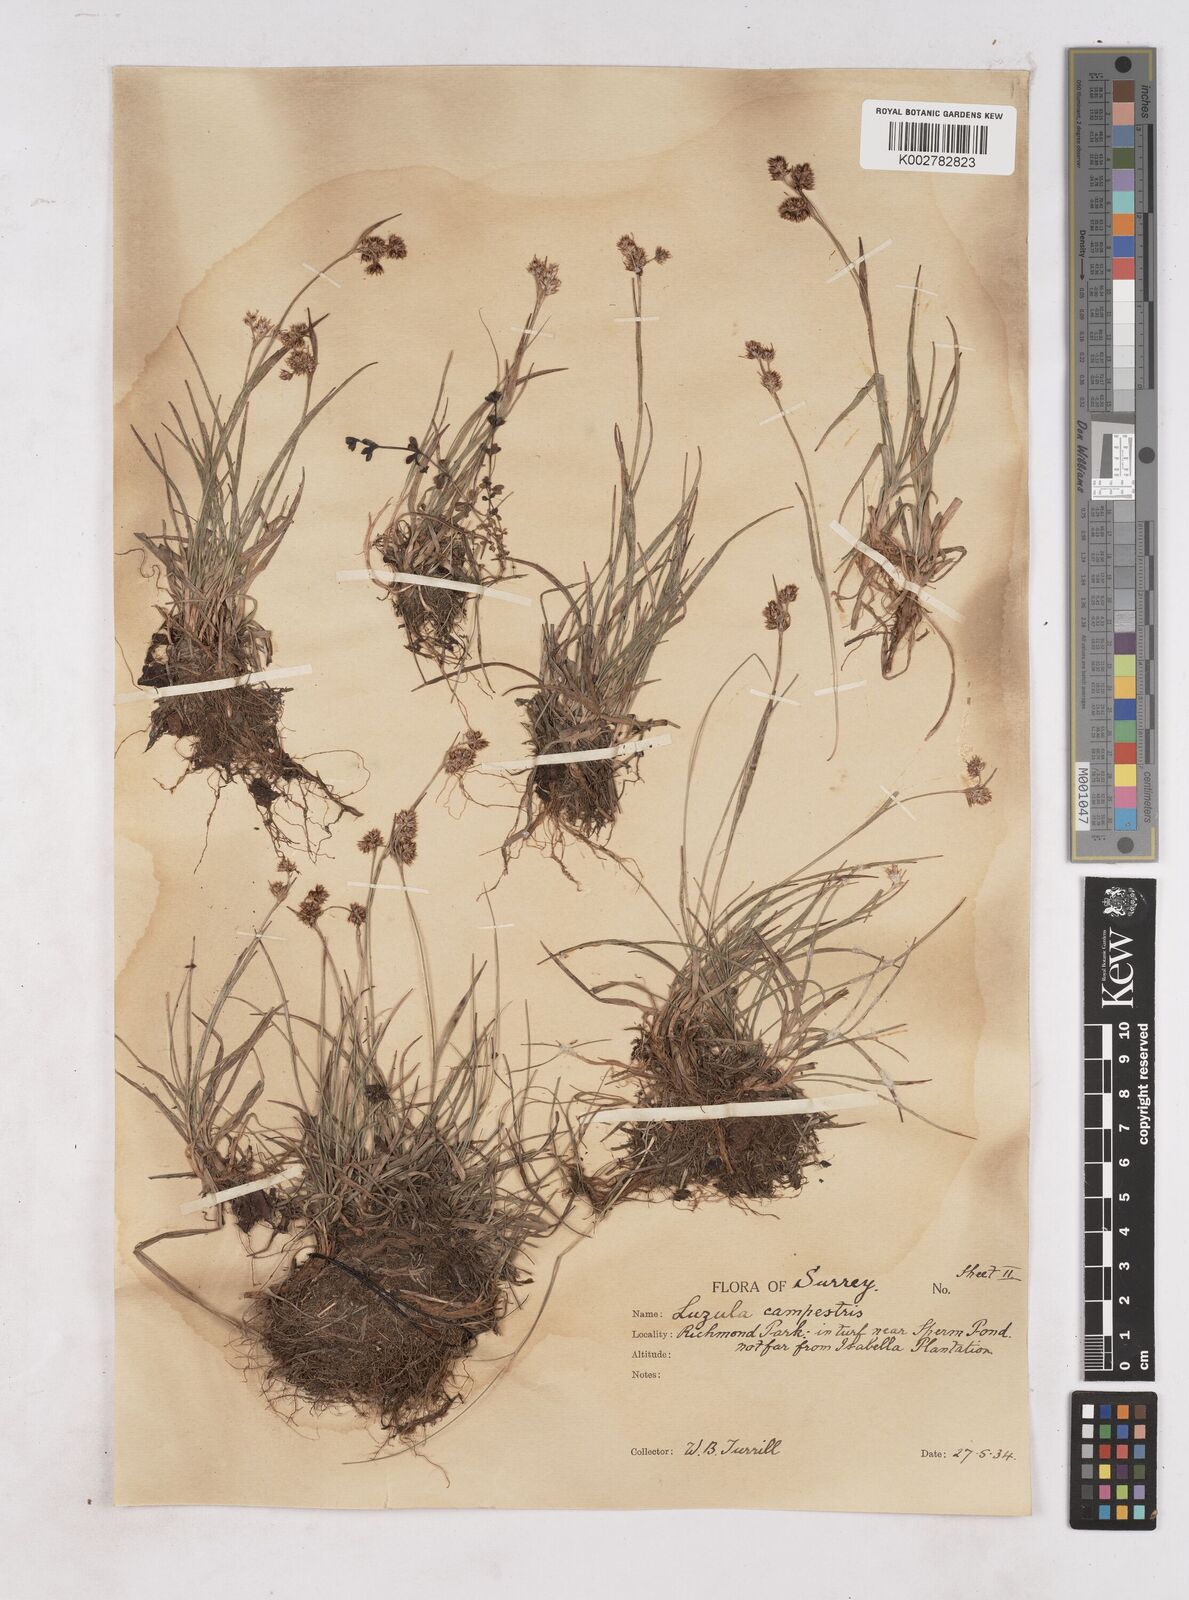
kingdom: Plantae
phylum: Tracheophyta
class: Liliopsida
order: Poales
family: Juncaceae
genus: Luzula
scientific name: Luzula campestris
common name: Field wood-rush
